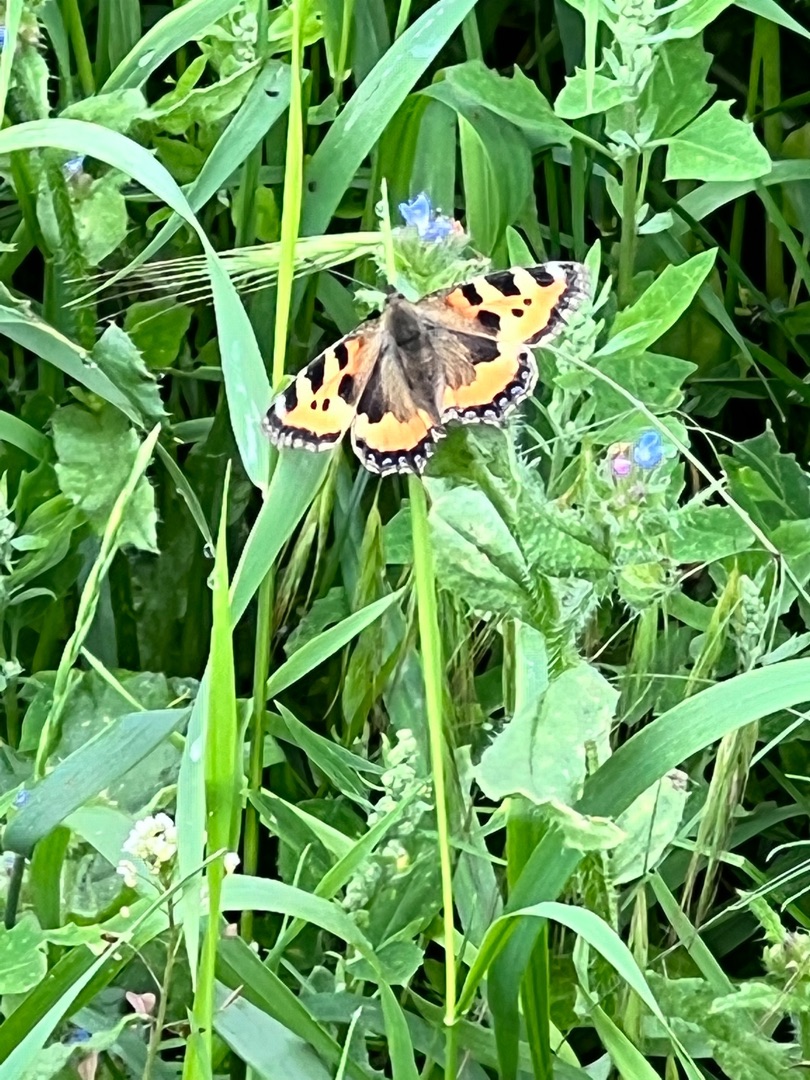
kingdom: Animalia
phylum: Arthropoda
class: Insecta
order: Lepidoptera
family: Nymphalidae
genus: Aglais
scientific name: Aglais urticae
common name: Nældens takvinge
